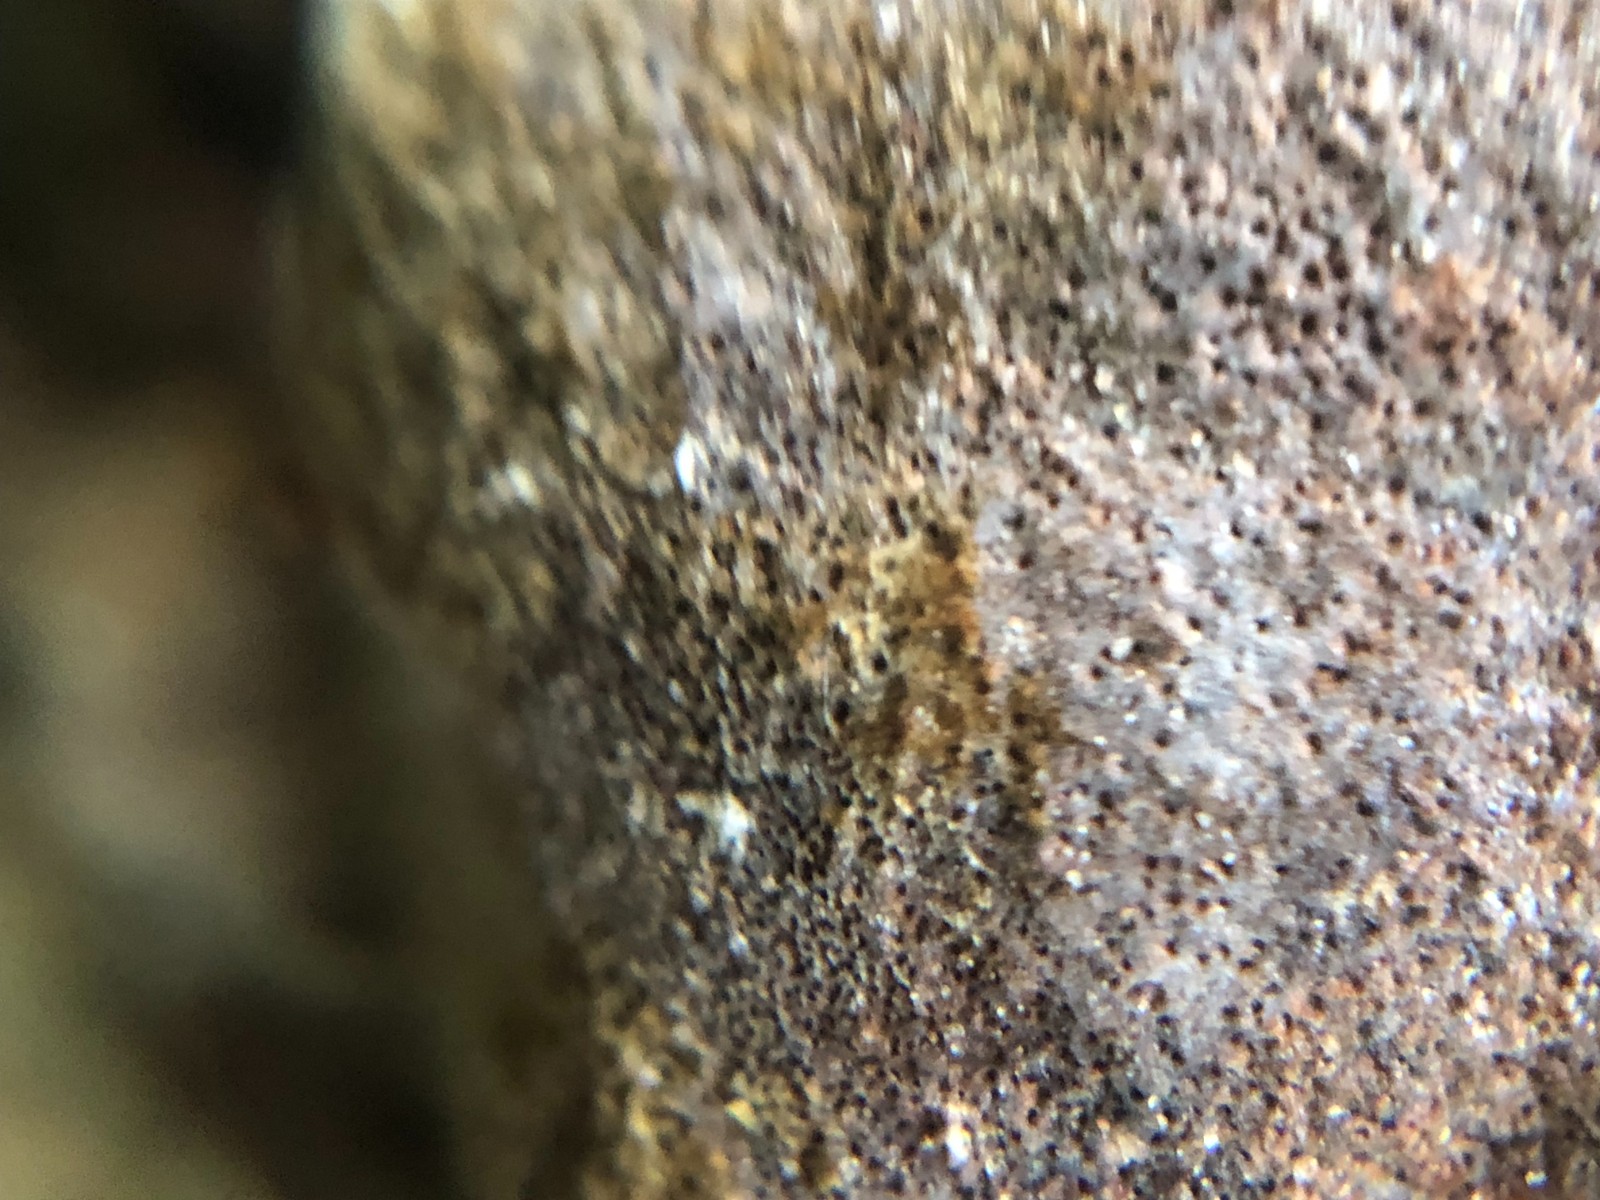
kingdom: Fungi
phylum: Basidiomycota
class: Agaricomycetes
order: Hymenochaetales
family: Hymenochaetaceae
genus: Fomitiporia
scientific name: Fomitiporia hippophaeicola
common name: havtorn-ildporesvamp
